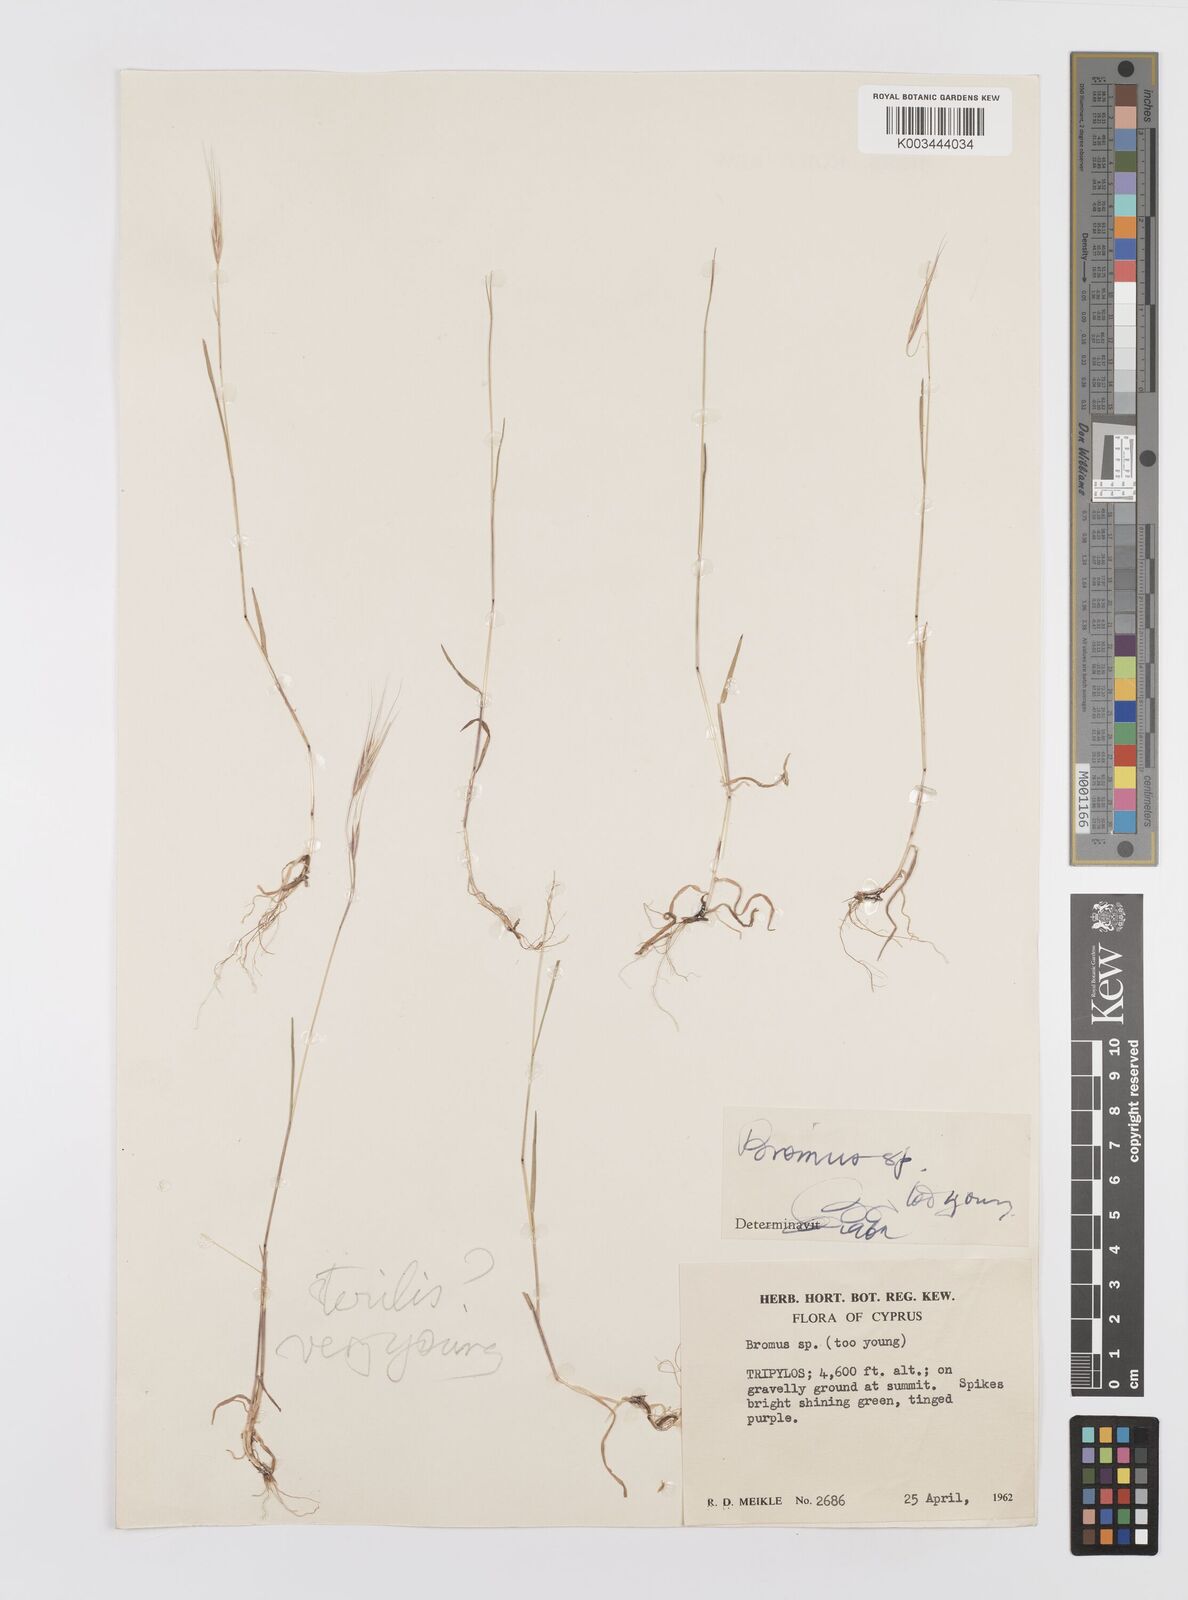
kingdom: Plantae
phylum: Tracheophyta
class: Liliopsida
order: Poales
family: Poaceae
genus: Bromus
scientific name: Bromus sterilis
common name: Poverty brome
